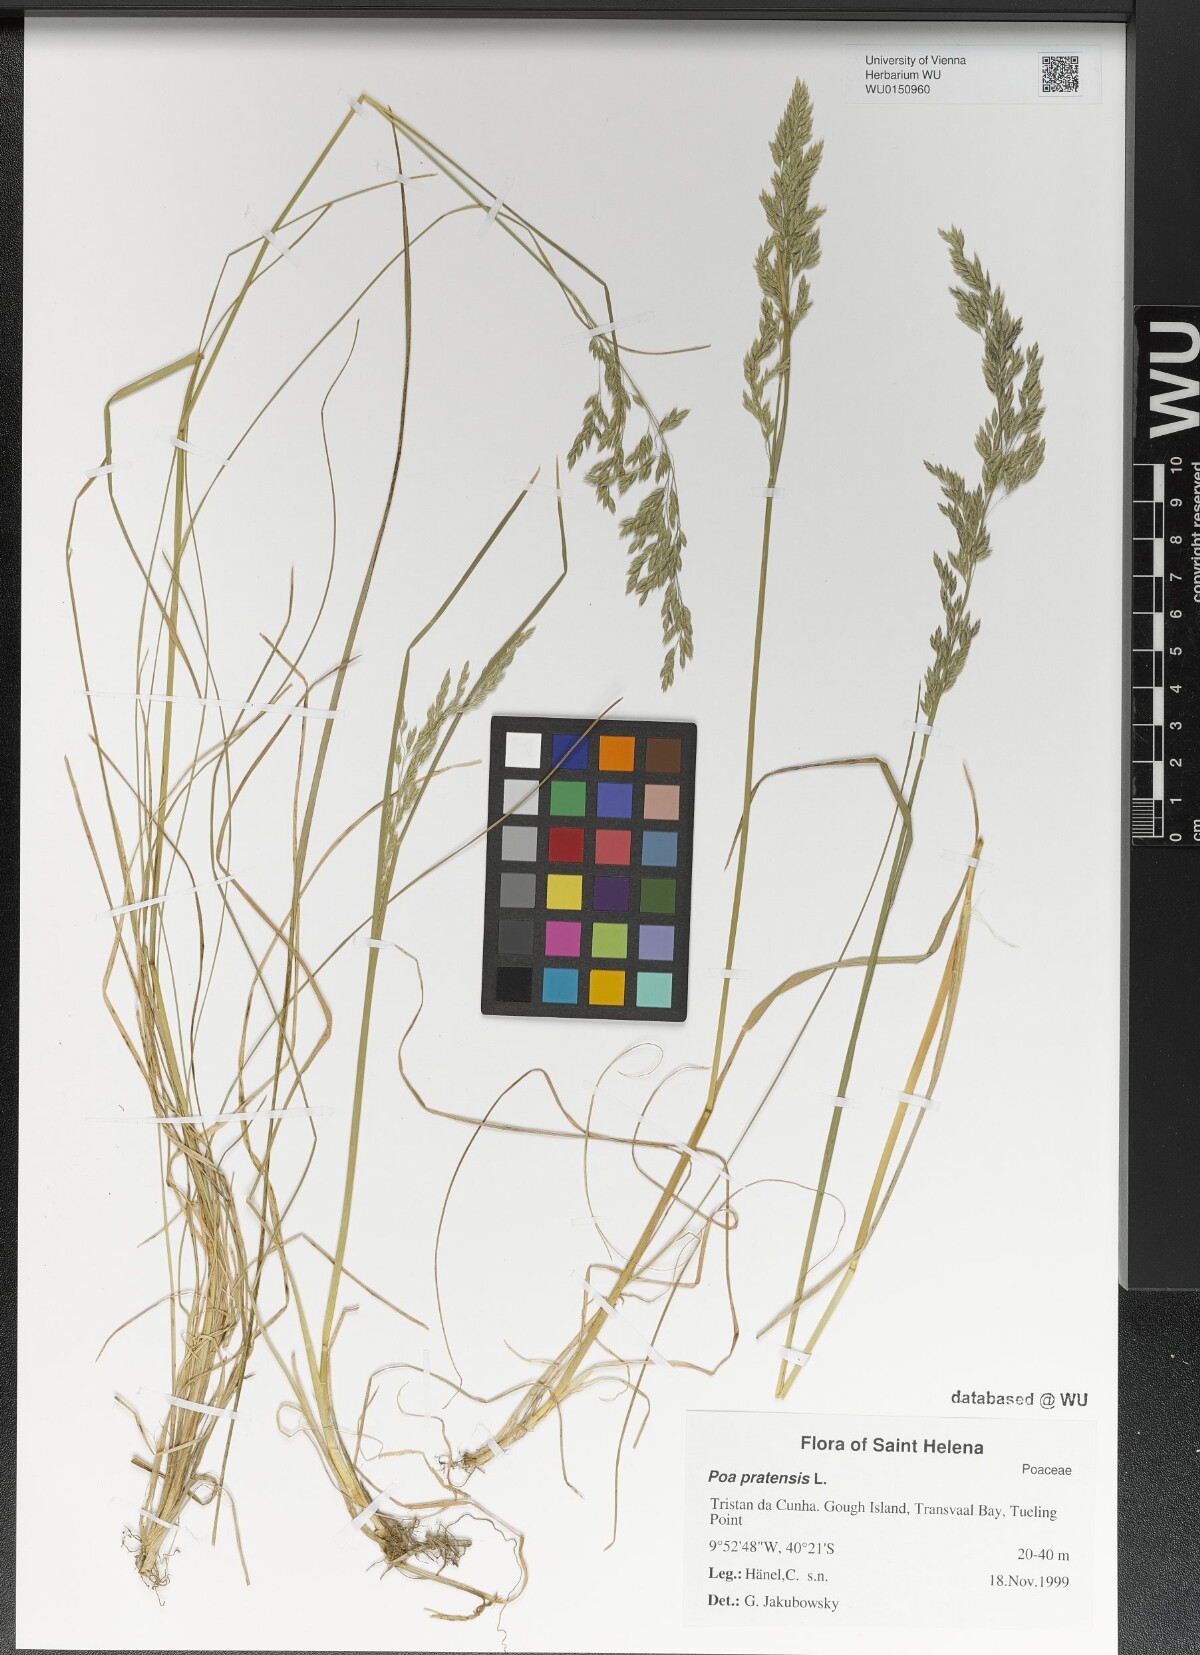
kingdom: Plantae
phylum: Tracheophyta
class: Liliopsida
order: Poales
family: Poaceae
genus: Poa
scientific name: Poa pratensis
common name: Kentucky bluegrass
